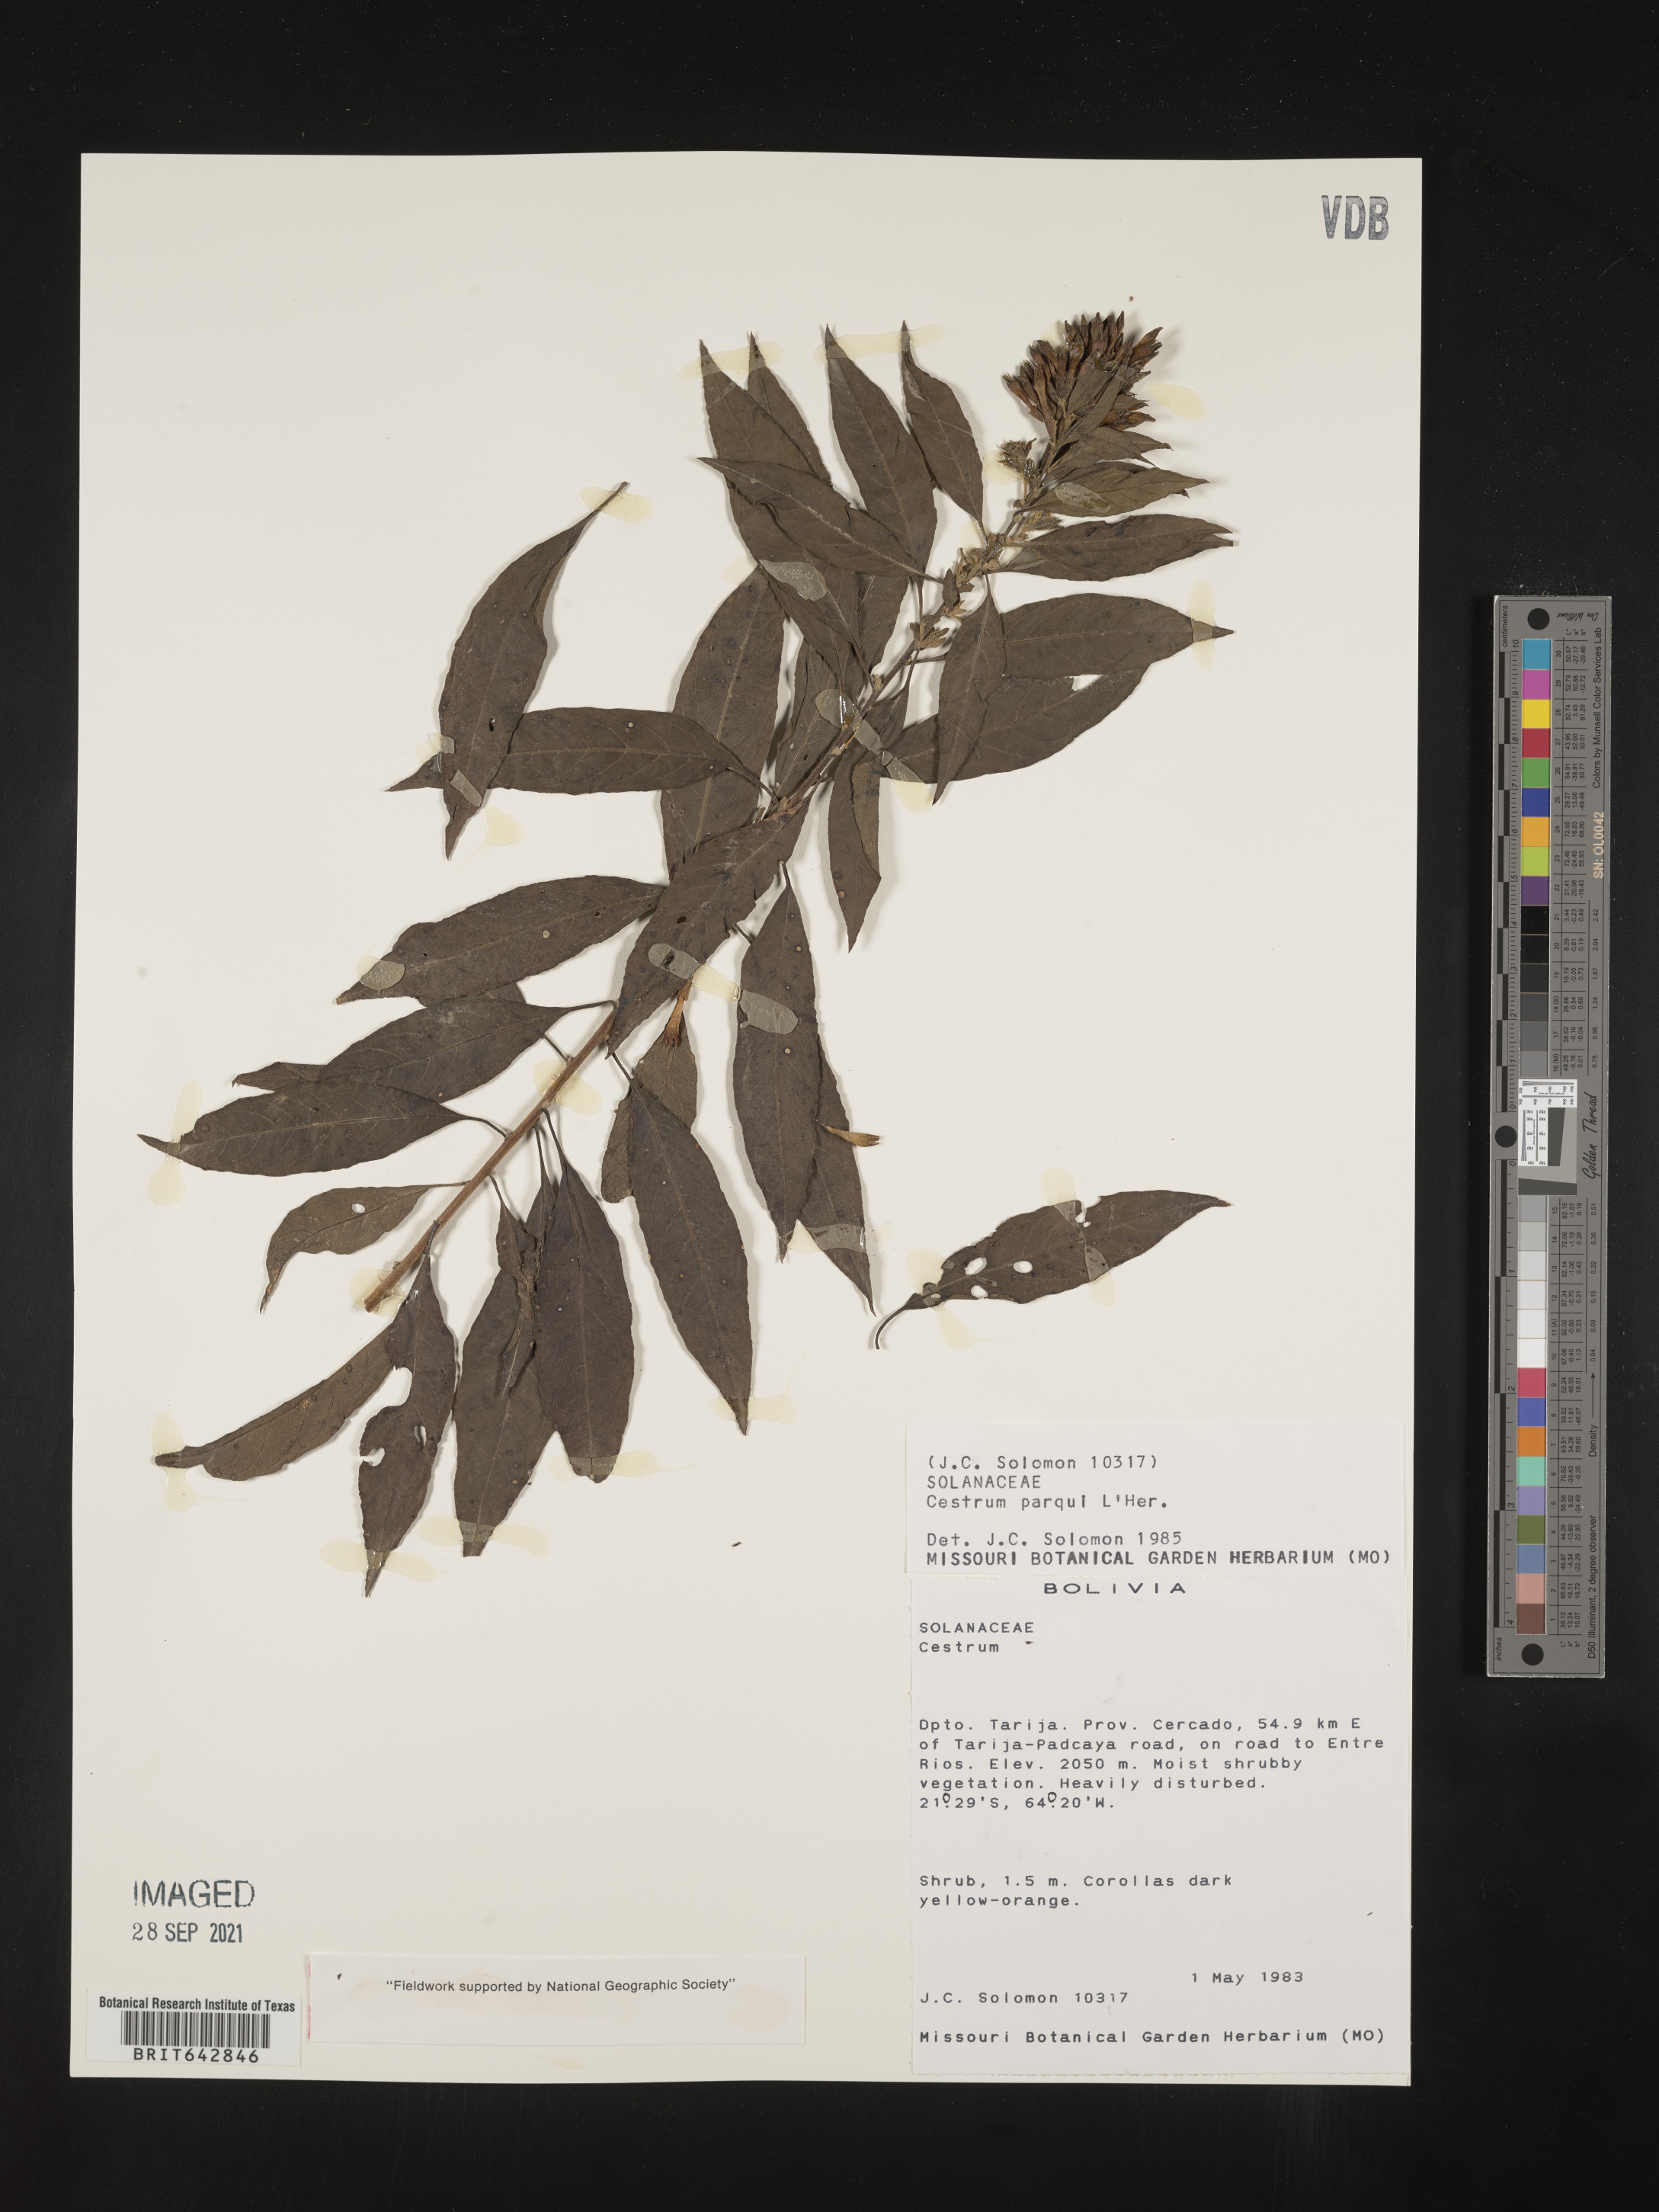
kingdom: Plantae
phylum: Tracheophyta
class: Magnoliopsida
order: Solanales
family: Solanaceae
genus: Cestrum
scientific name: Cestrum
